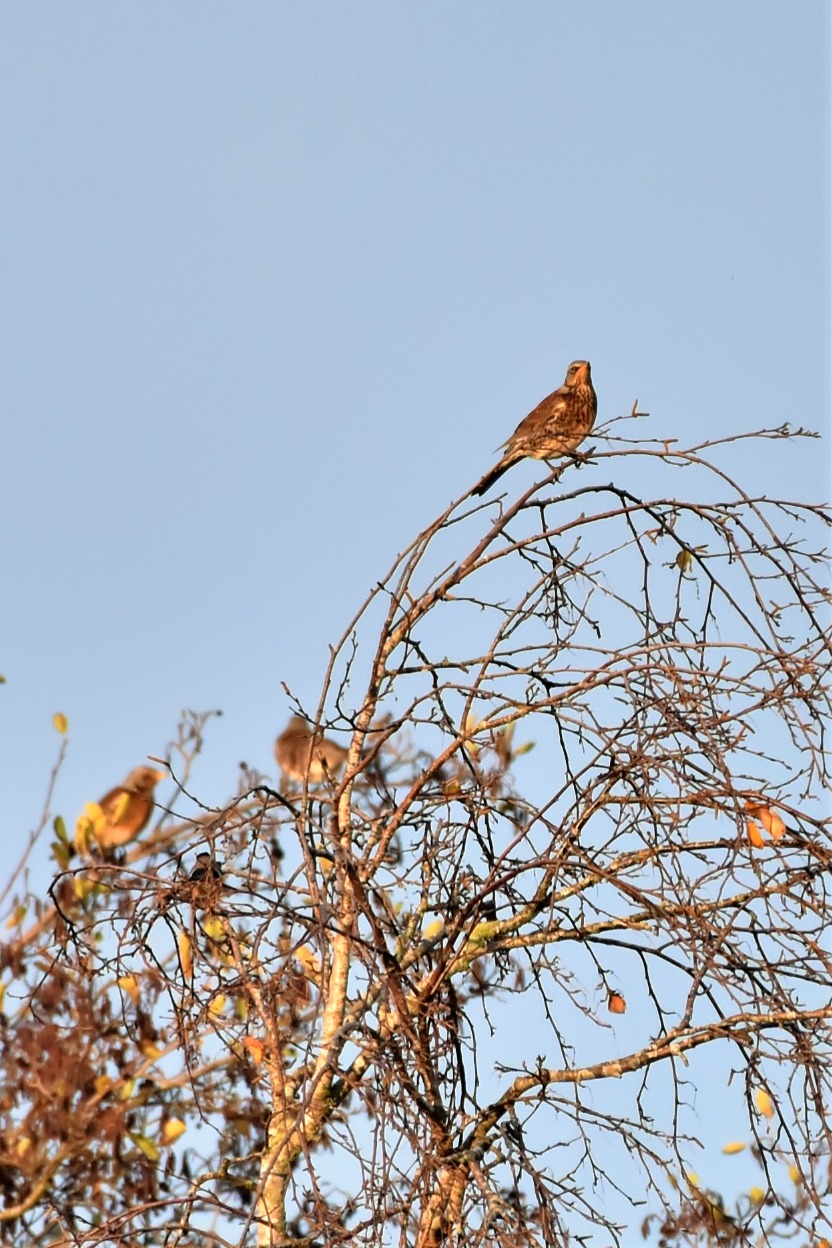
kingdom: Animalia
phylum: Chordata
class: Aves
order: Passeriformes
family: Turdidae
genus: Turdus
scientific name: Turdus pilaris
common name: Sjagger
